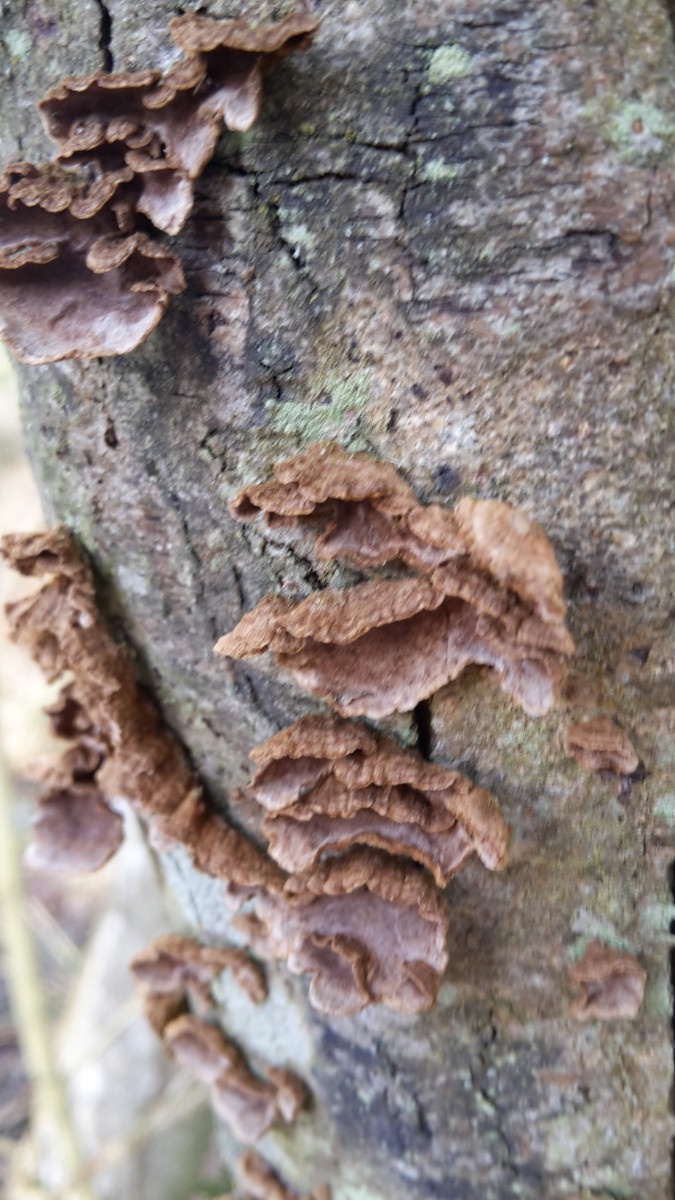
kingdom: Fungi
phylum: Basidiomycota
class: Agaricomycetes
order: Hymenochaetales
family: Hymenochaetaceae
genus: Hydnoporia
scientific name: Hydnoporia tabacina
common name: tobaksbrun ruslædersvamp
